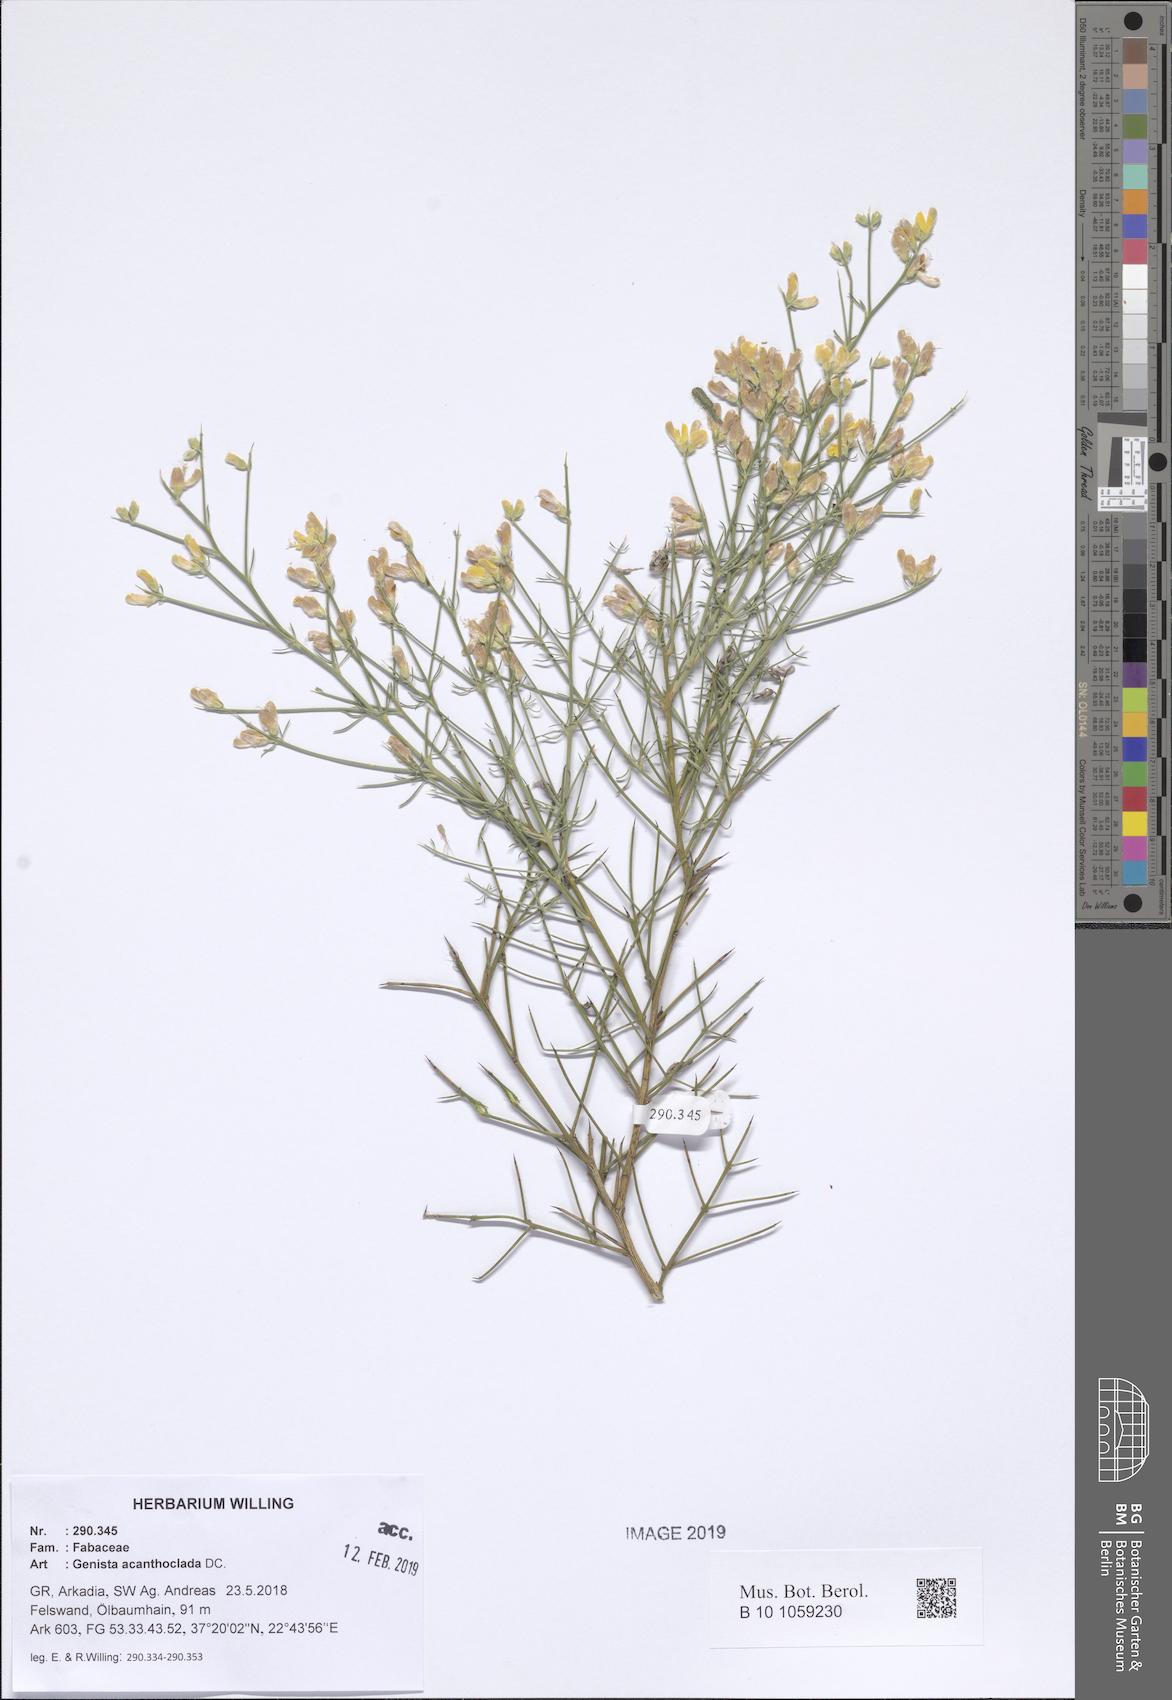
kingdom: Plantae
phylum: Tracheophyta
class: Magnoliopsida
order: Fabales
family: Fabaceae
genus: Genista
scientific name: Genista acanthoclada
